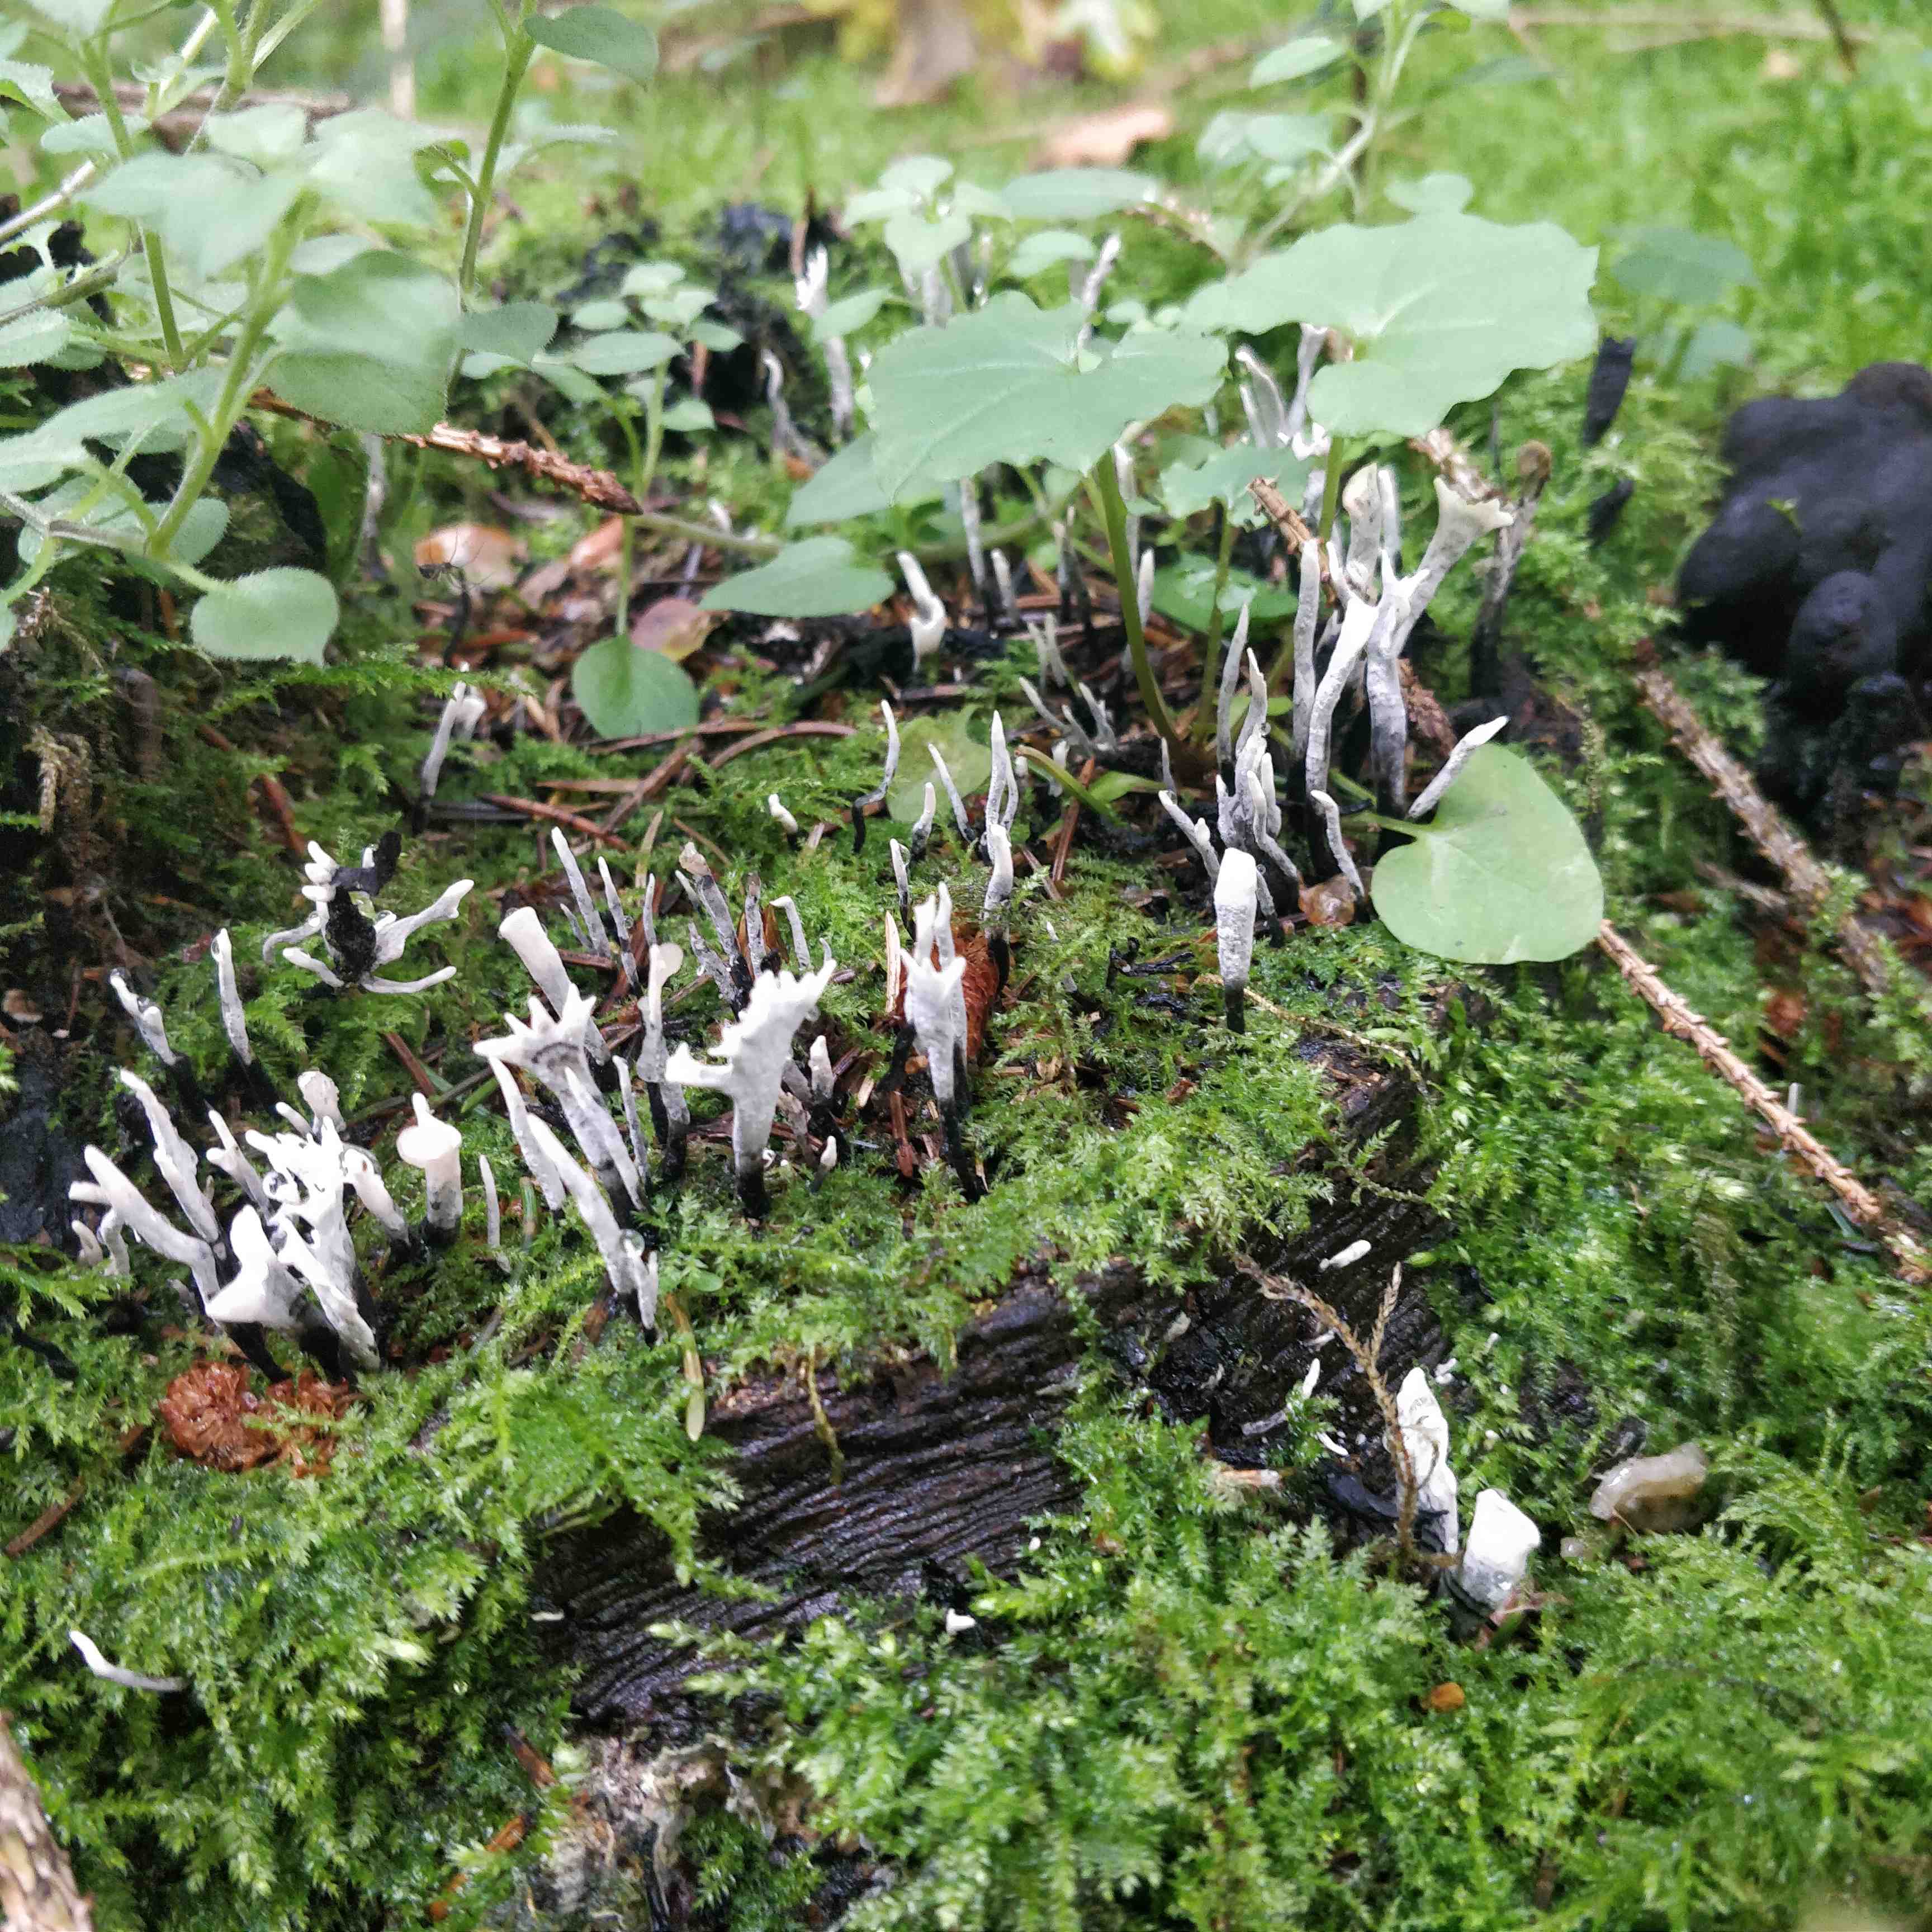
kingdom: Fungi
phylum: Ascomycota
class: Sordariomycetes
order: Xylariales
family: Xylariaceae
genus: Xylaria
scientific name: Xylaria hypoxylon
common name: grenet stødsvamp
